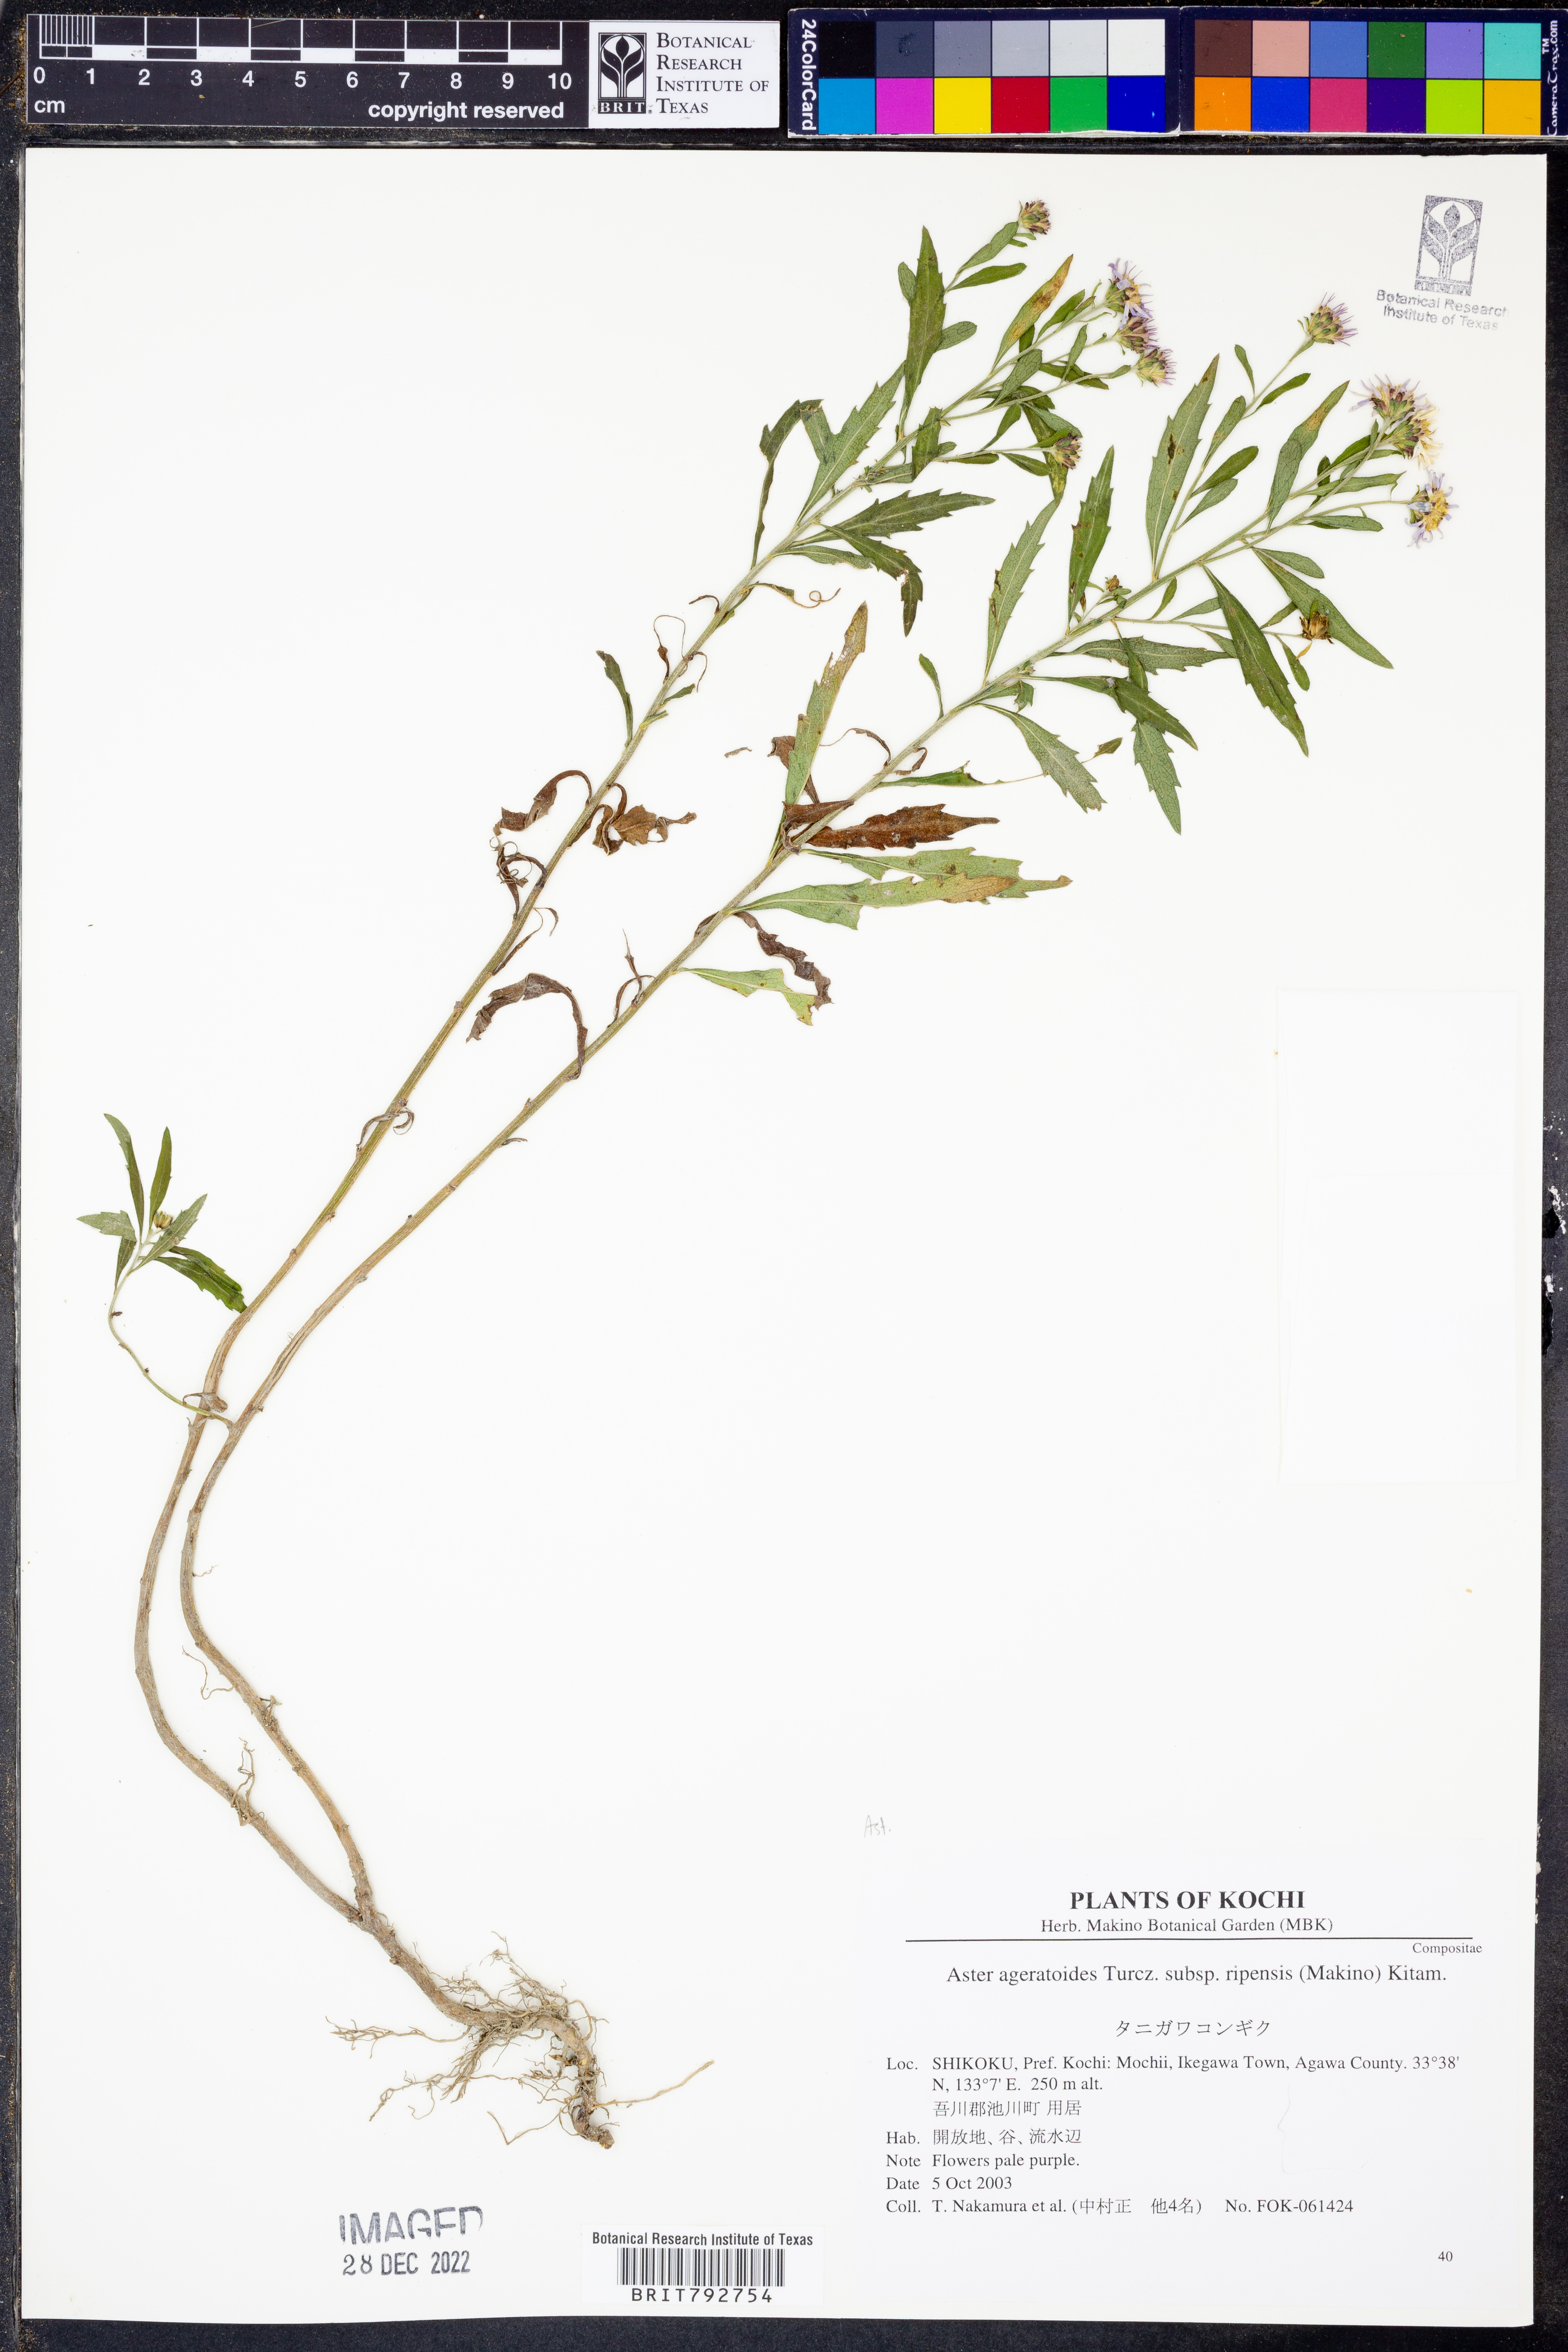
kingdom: Plantae
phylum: Tracheophyta
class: Magnoliopsida
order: Asterales
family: Asteraceae
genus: Aster
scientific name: Aster microcephalus
